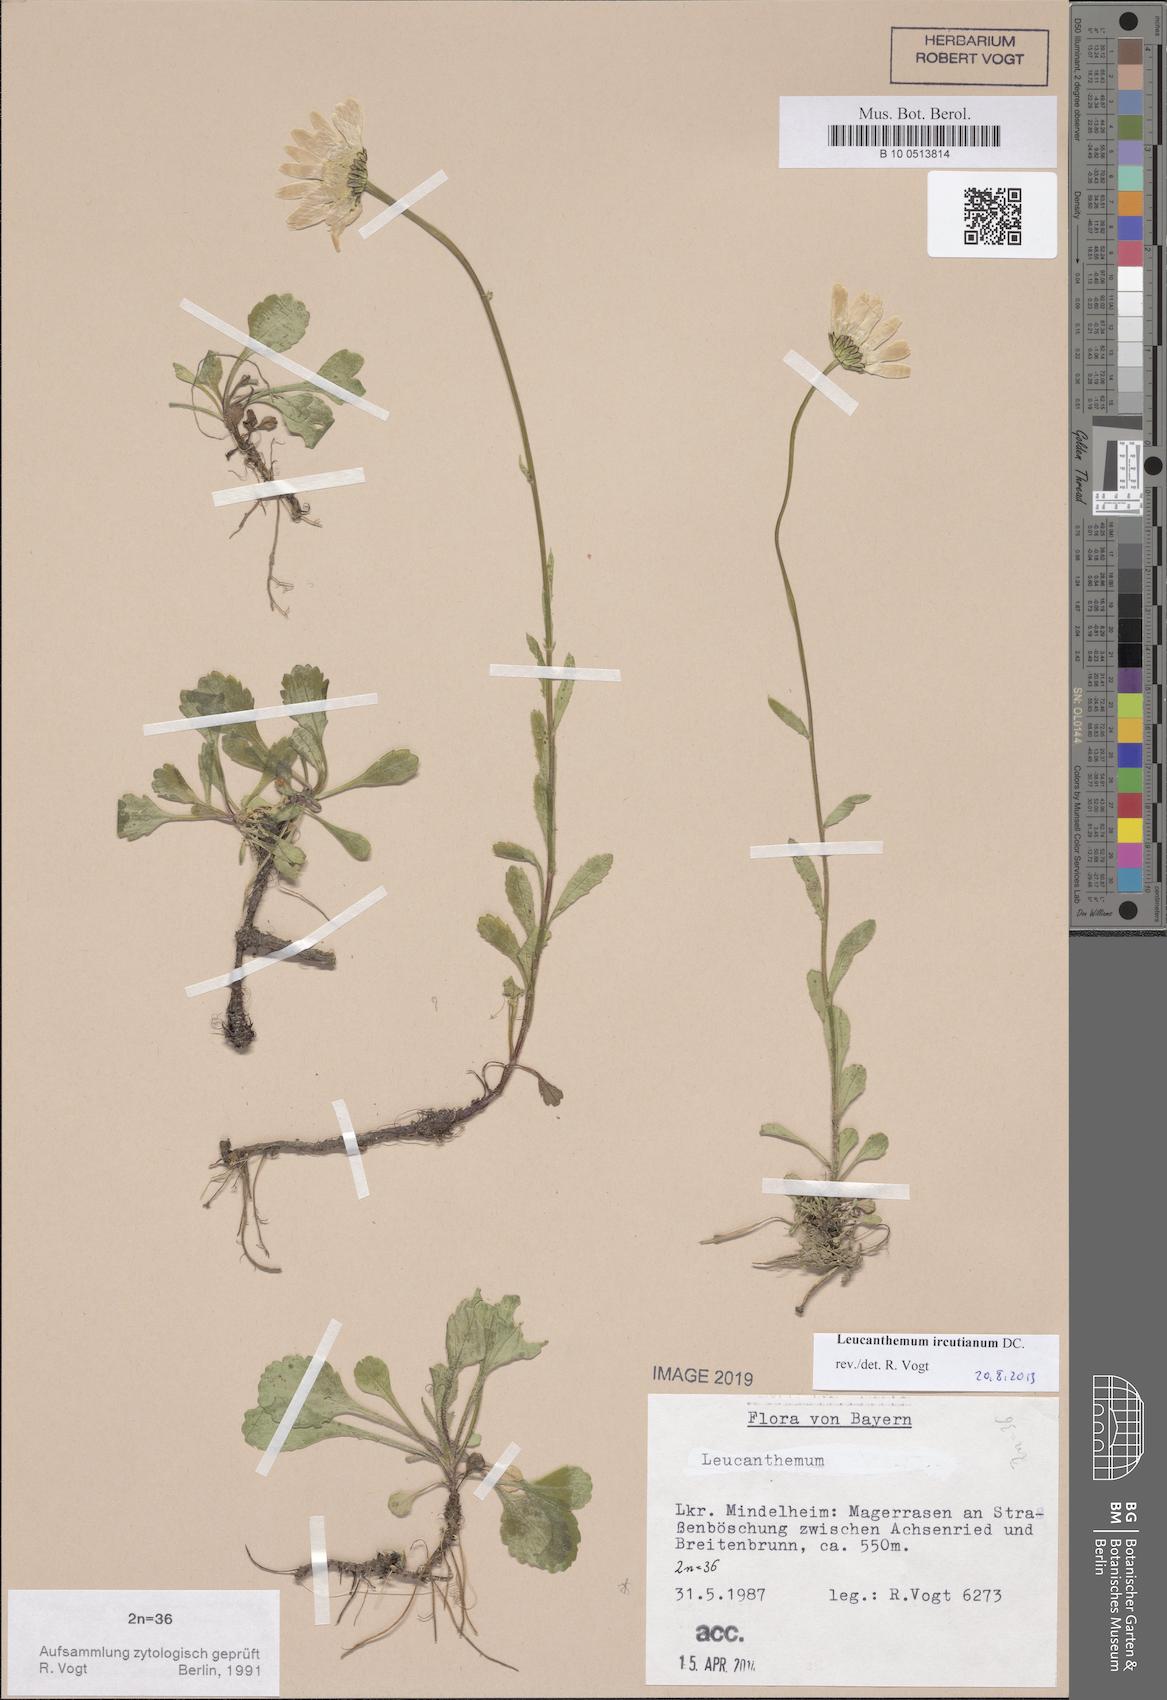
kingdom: Plantae
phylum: Tracheophyta
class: Magnoliopsida
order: Asterales
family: Asteraceae
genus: Leucanthemum
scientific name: Leucanthemum ircutianum
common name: Daisy
